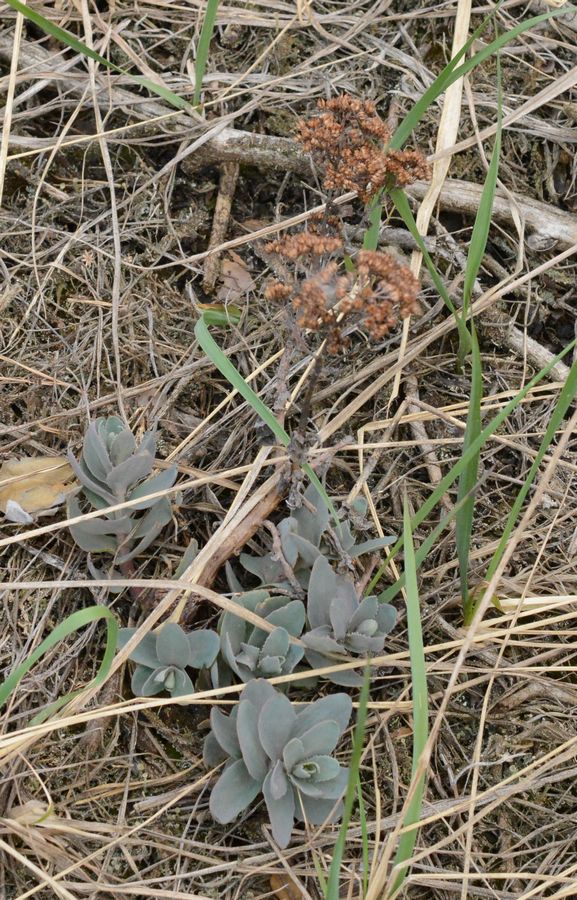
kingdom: Plantae
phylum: Tracheophyta
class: Magnoliopsida
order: Saxifragales
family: Crassulaceae
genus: Hylotelephium
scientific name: Hylotelephium telephium
